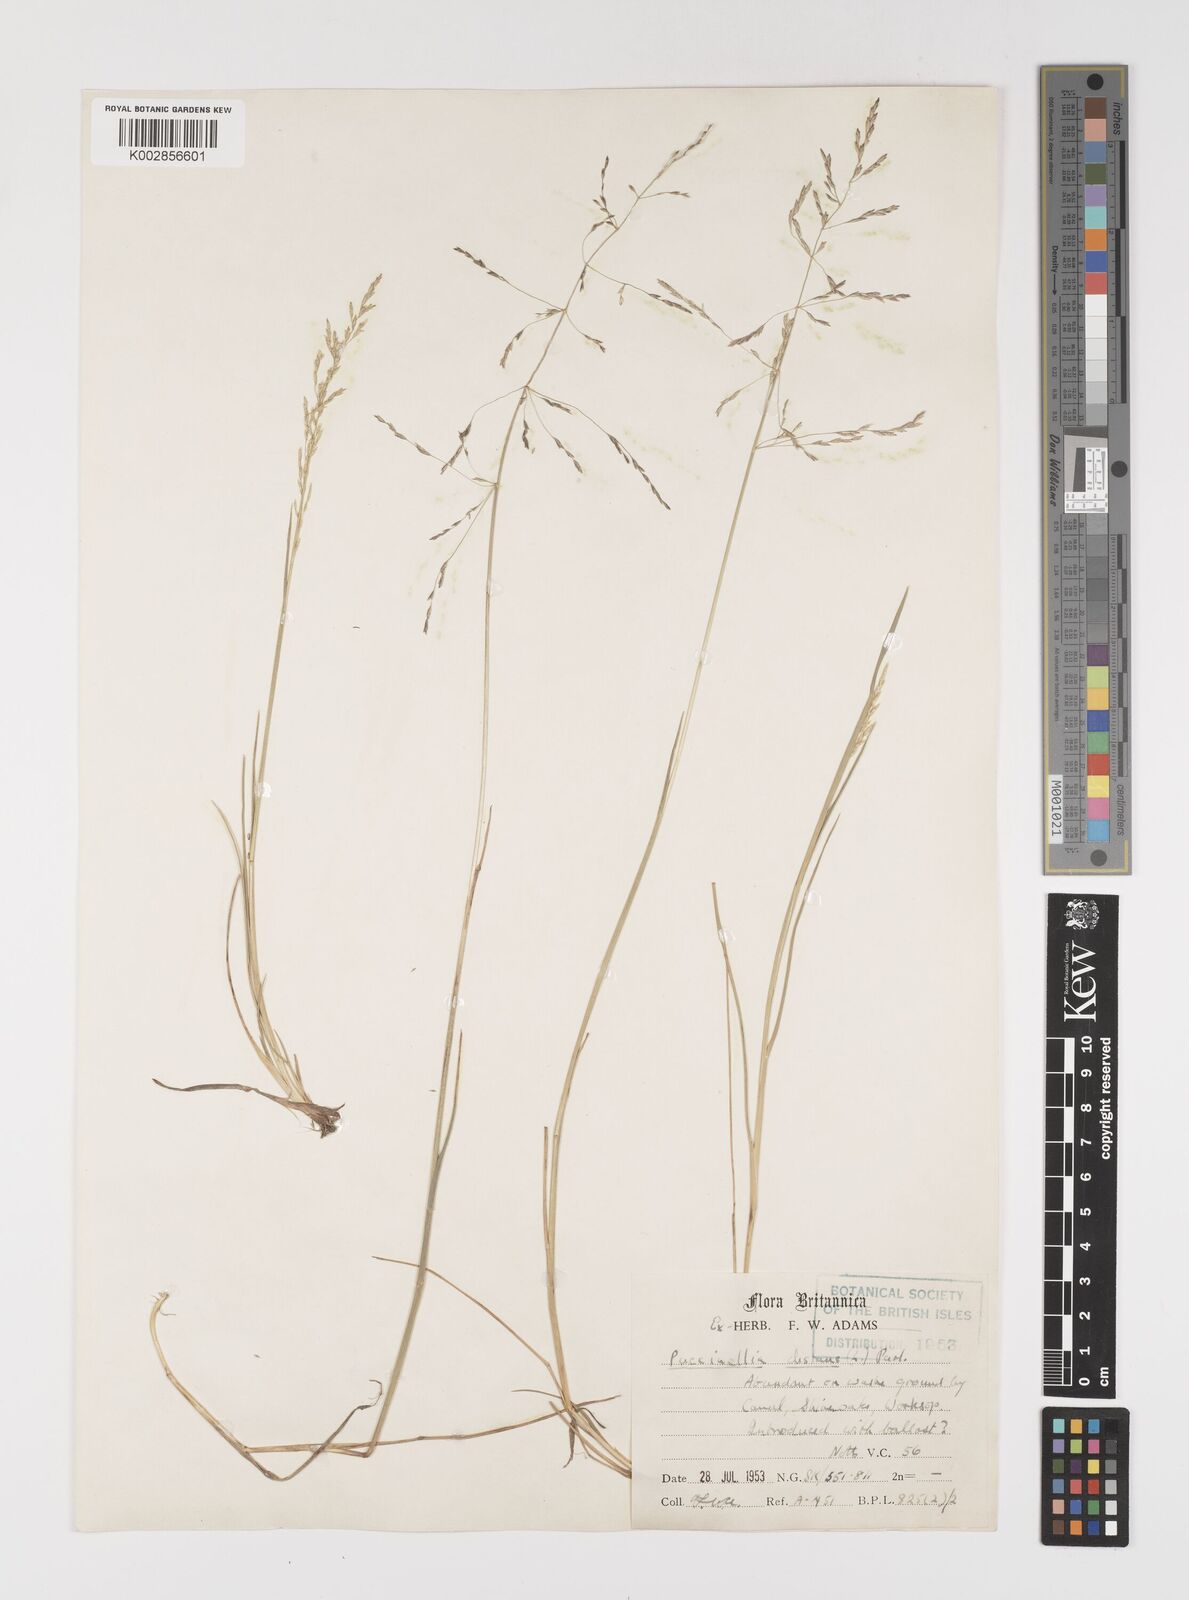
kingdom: Plantae
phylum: Tracheophyta
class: Liliopsida
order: Poales
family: Poaceae
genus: Puccinellia
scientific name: Puccinellia distans
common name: Weeping alkaligrass
